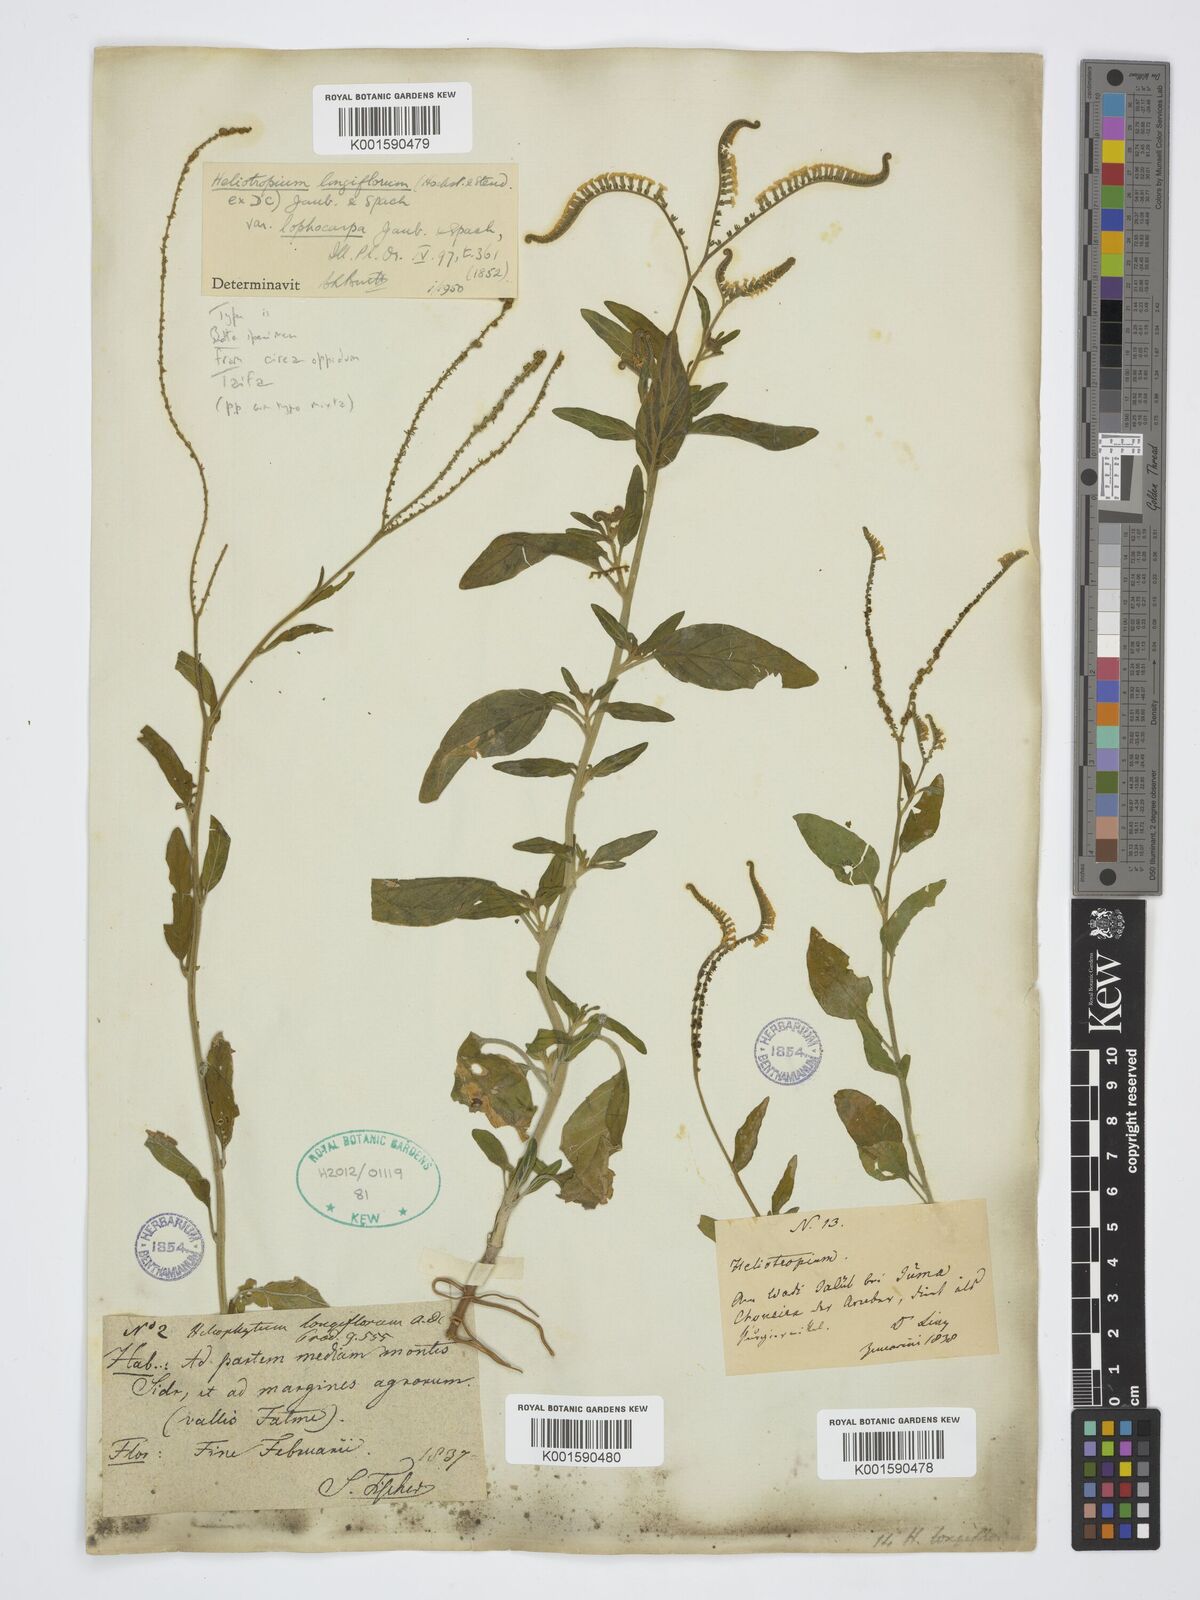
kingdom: Plantae
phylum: Tracheophyta
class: Magnoliopsida
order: Boraginales
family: Heliotropiaceae
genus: Heliotropium
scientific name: Heliotropium longiflorum
